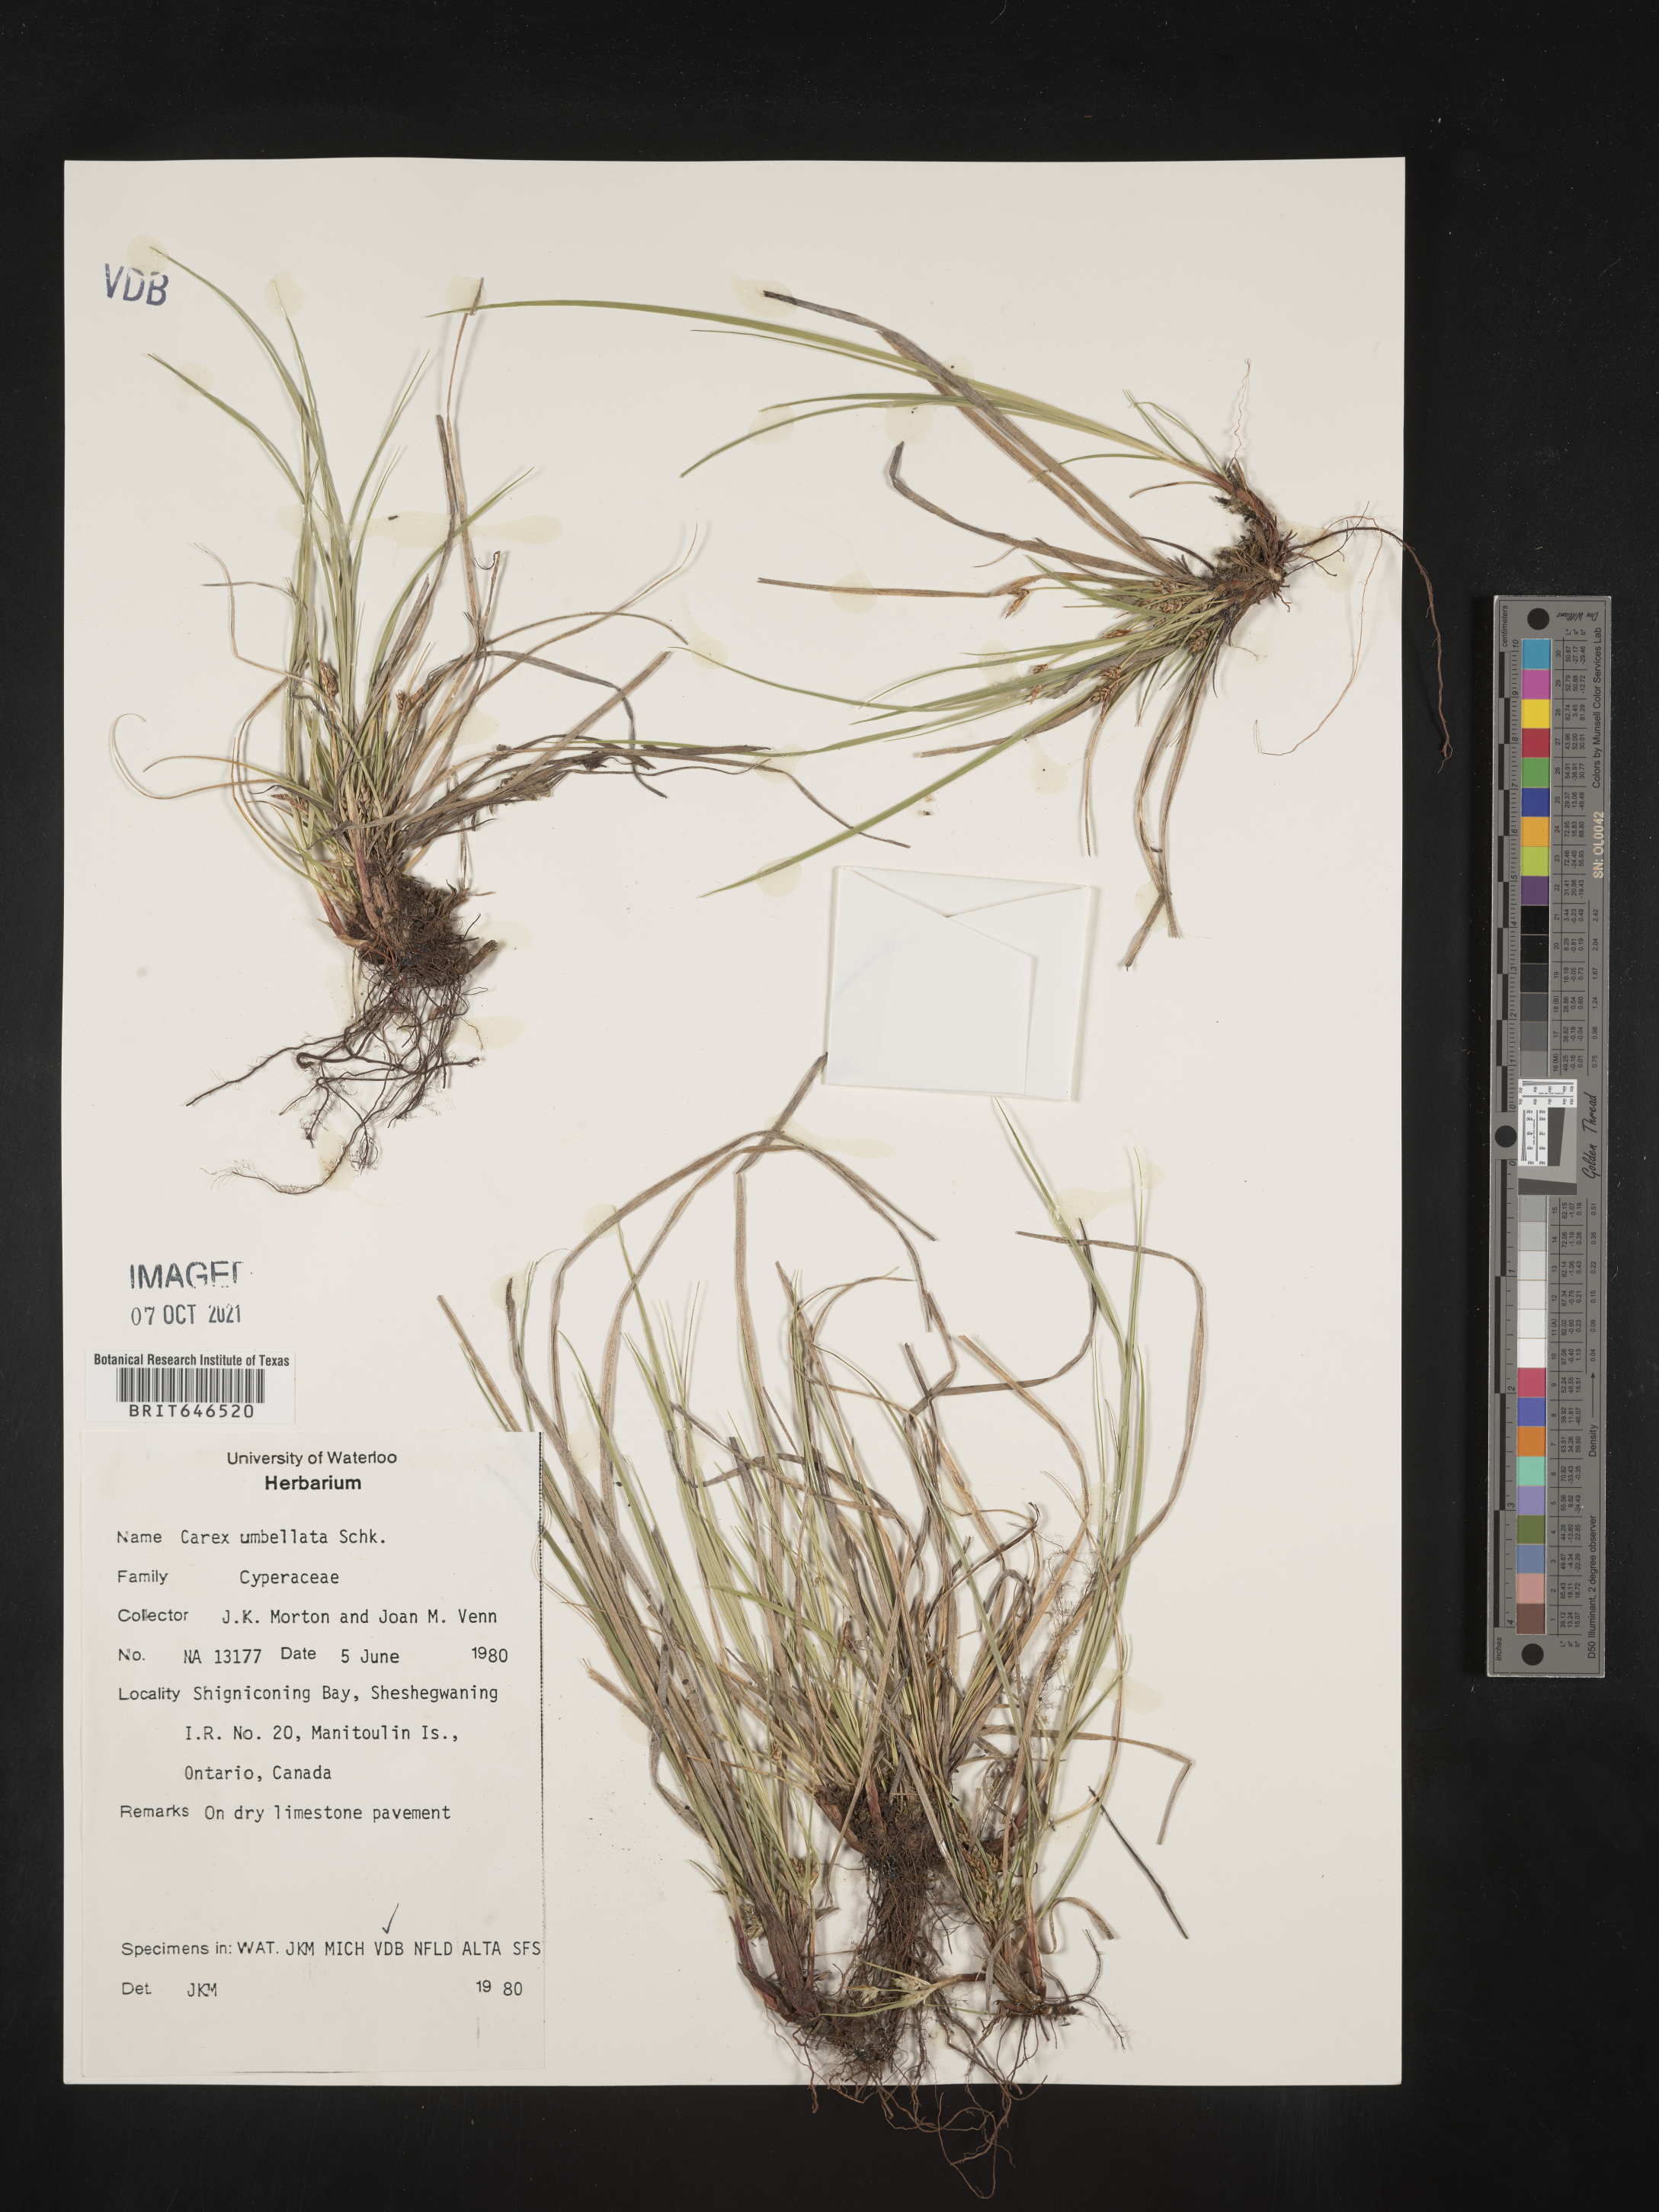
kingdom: Plantae
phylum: Tracheophyta
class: Liliopsida
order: Poales
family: Cyperaceae
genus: Carex
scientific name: Carex umbellata
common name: Early oak sedge
